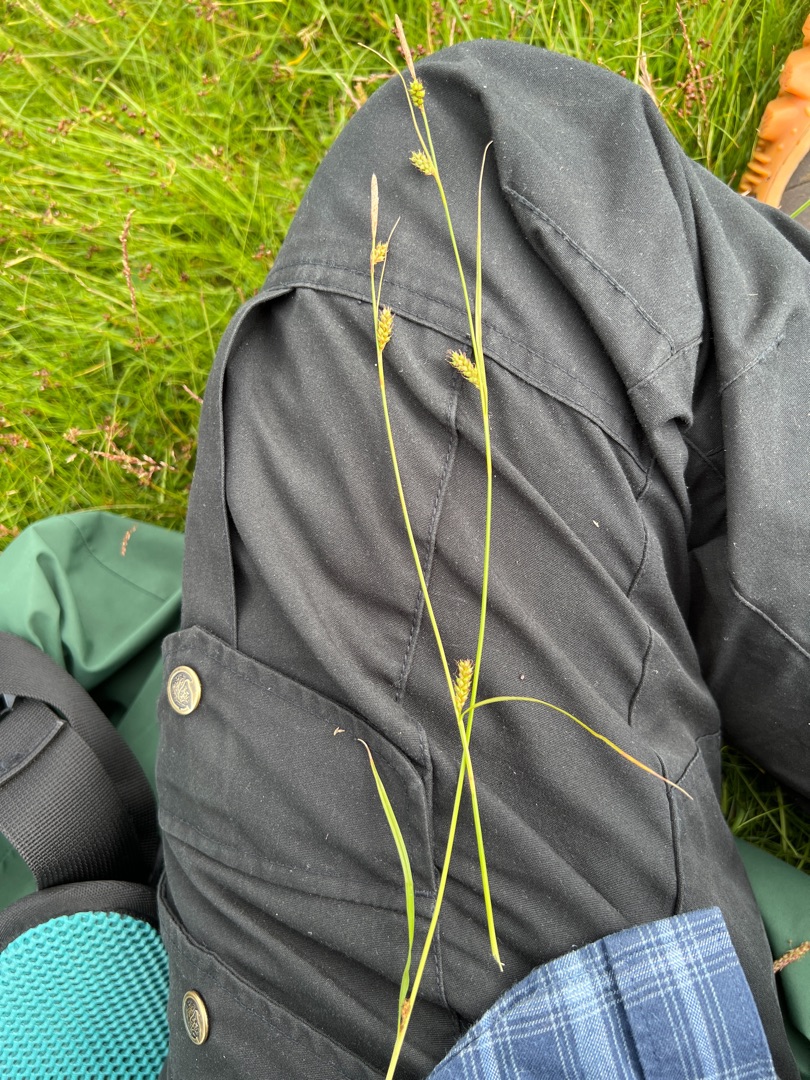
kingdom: Plantae
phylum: Tracheophyta
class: Liliopsida
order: Poales
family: Cyperaceae
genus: Carex
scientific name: Carex distans
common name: Fjernakset star
